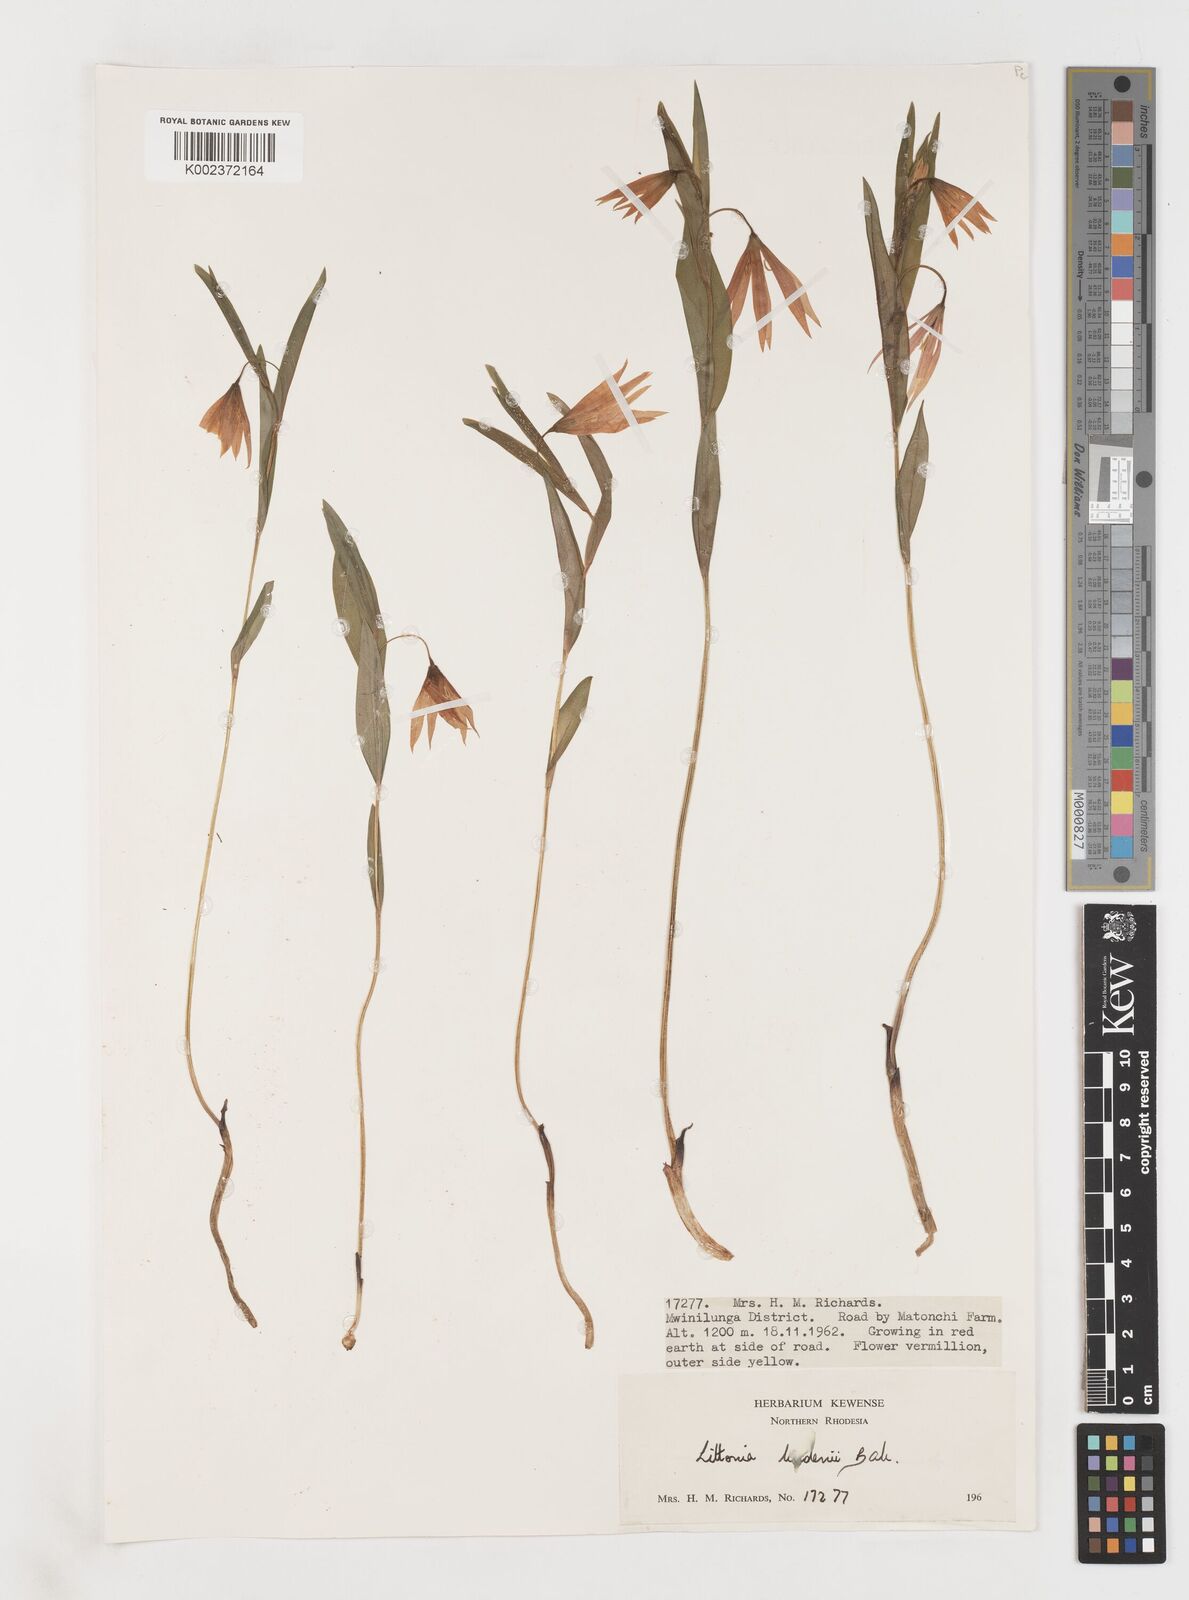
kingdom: Plantae
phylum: Tracheophyta
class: Liliopsida
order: Liliales
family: Colchicaceae
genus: Gloriosa
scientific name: Gloriosa lindenii
